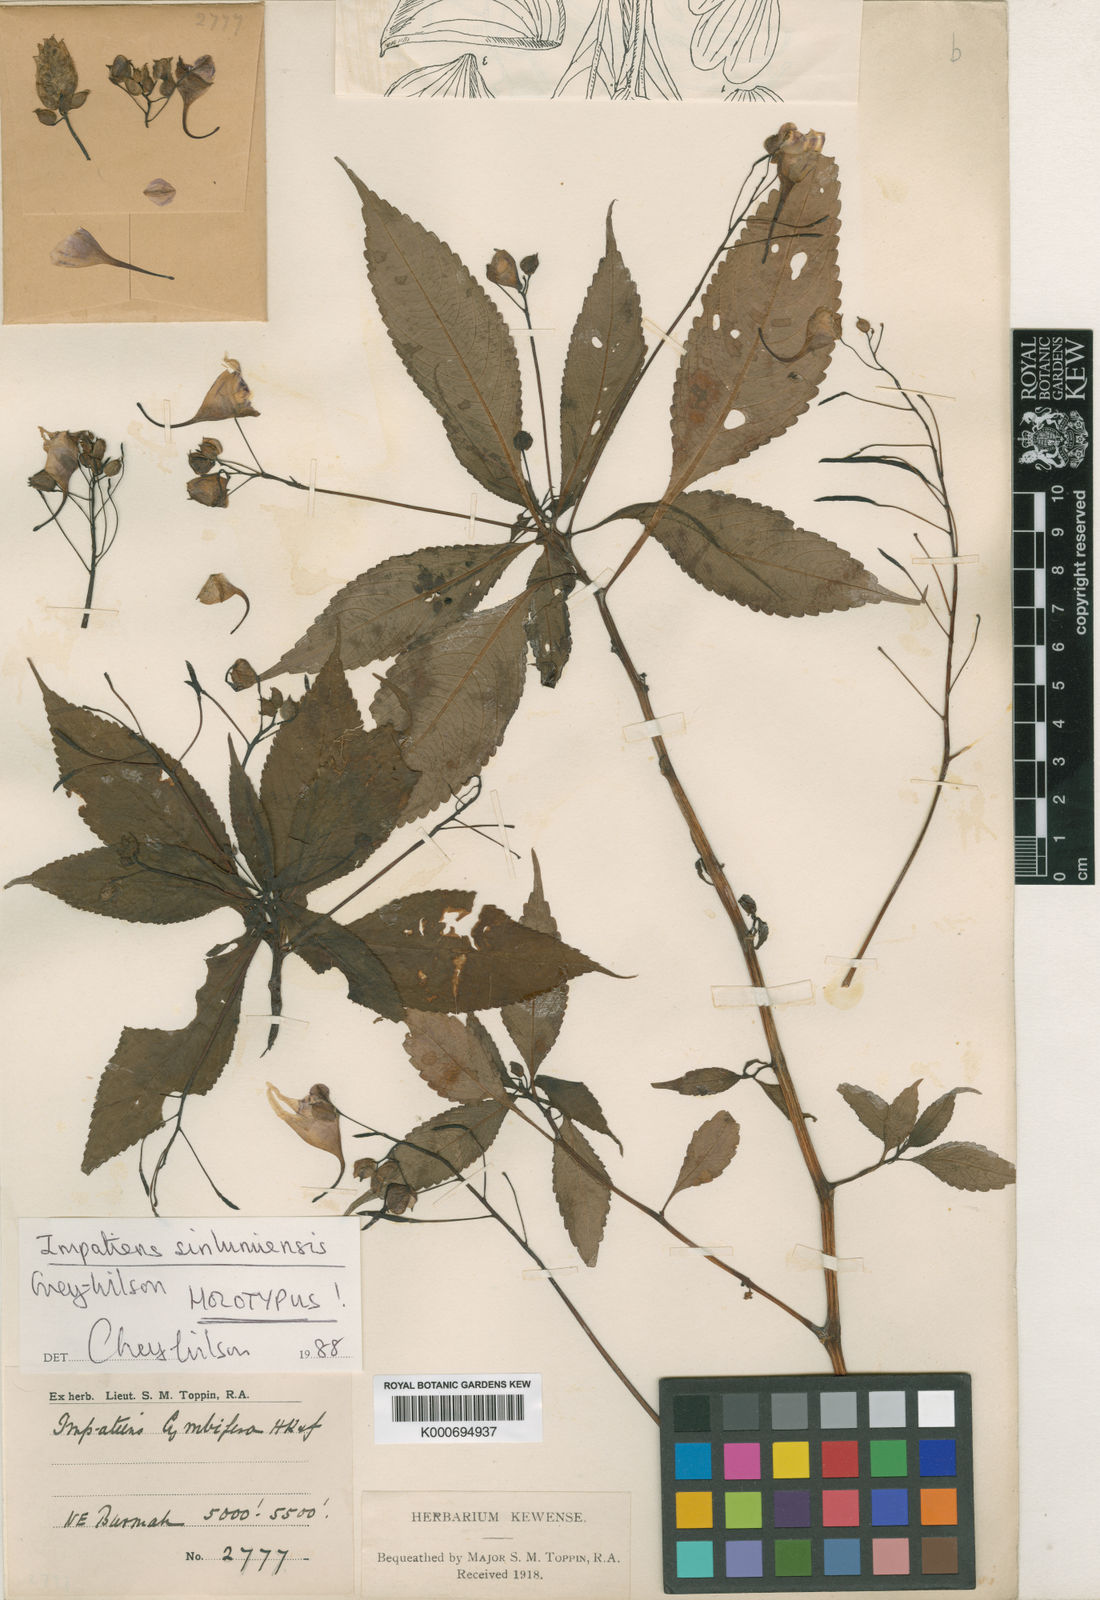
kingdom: Plantae
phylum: Tracheophyta
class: Magnoliopsida
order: Ericales
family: Balsaminaceae
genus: Impatiens
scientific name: Impatiens sinlumiensis
